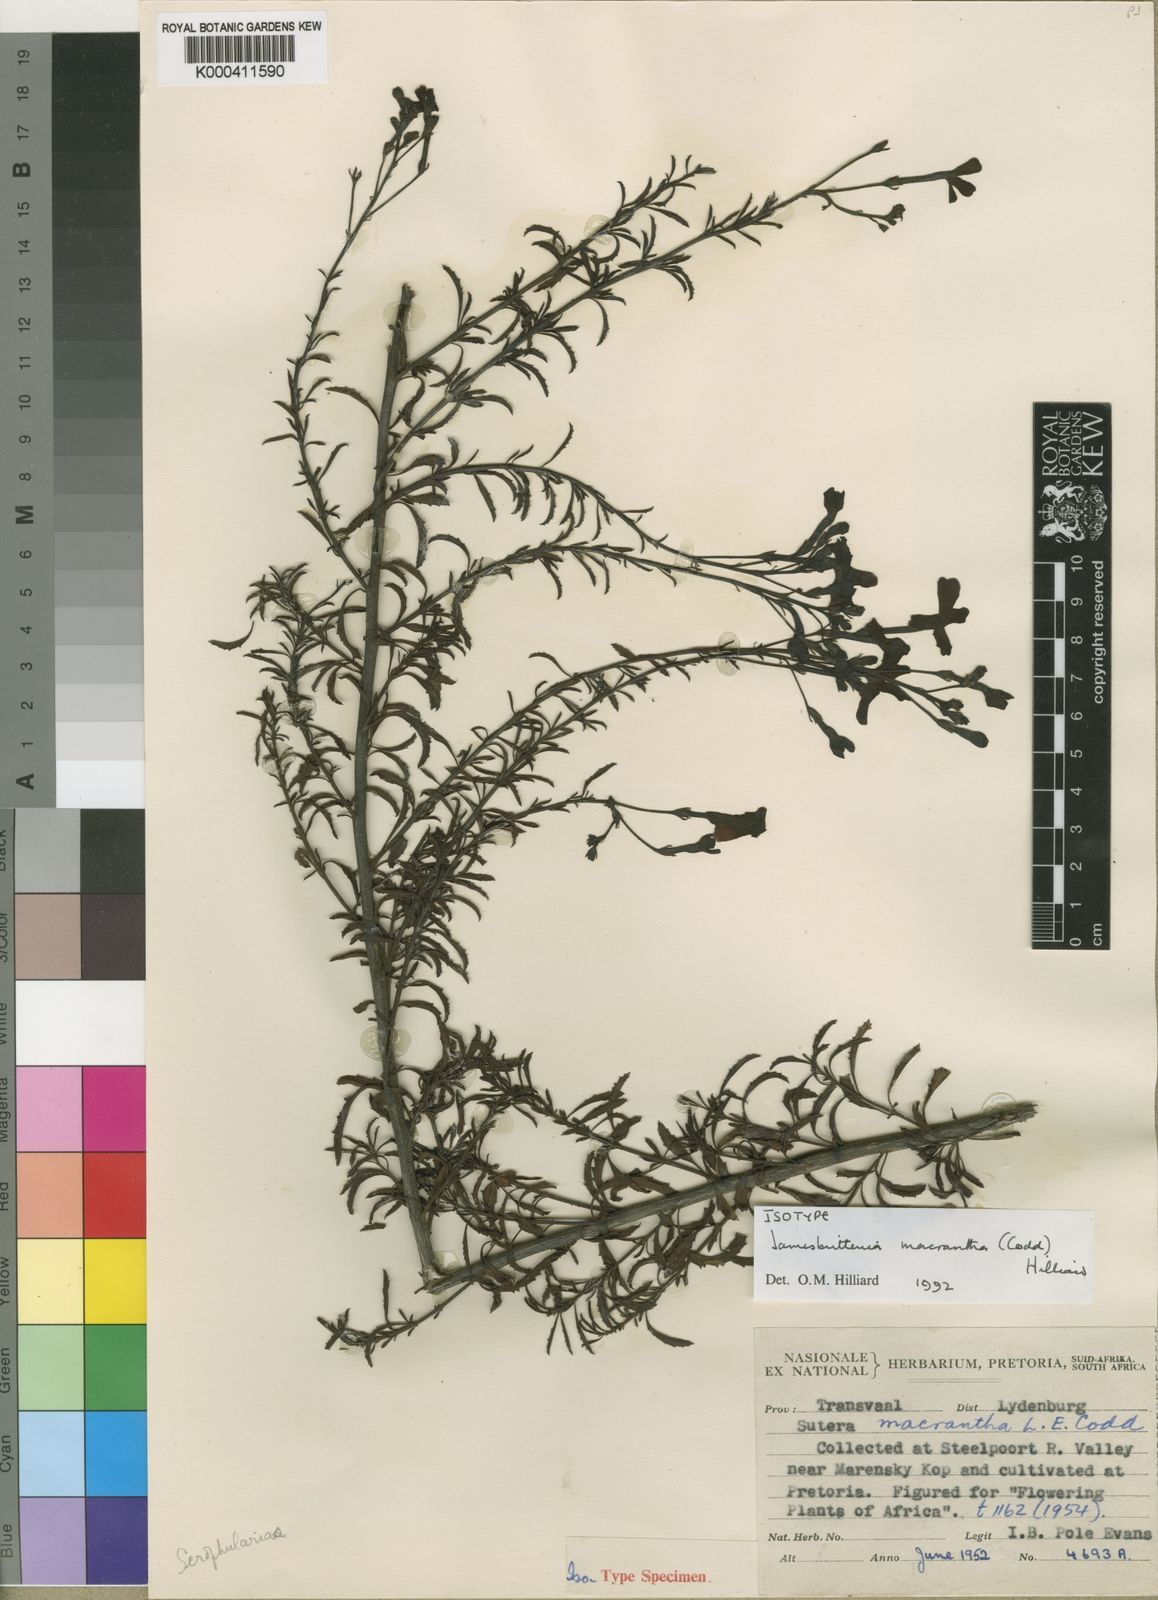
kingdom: Plantae
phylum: Tracheophyta
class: Magnoliopsida
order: Lamiales
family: Scrophulariaceae
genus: Jamesbrittenia
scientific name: Jamesbrittenia macrantha
